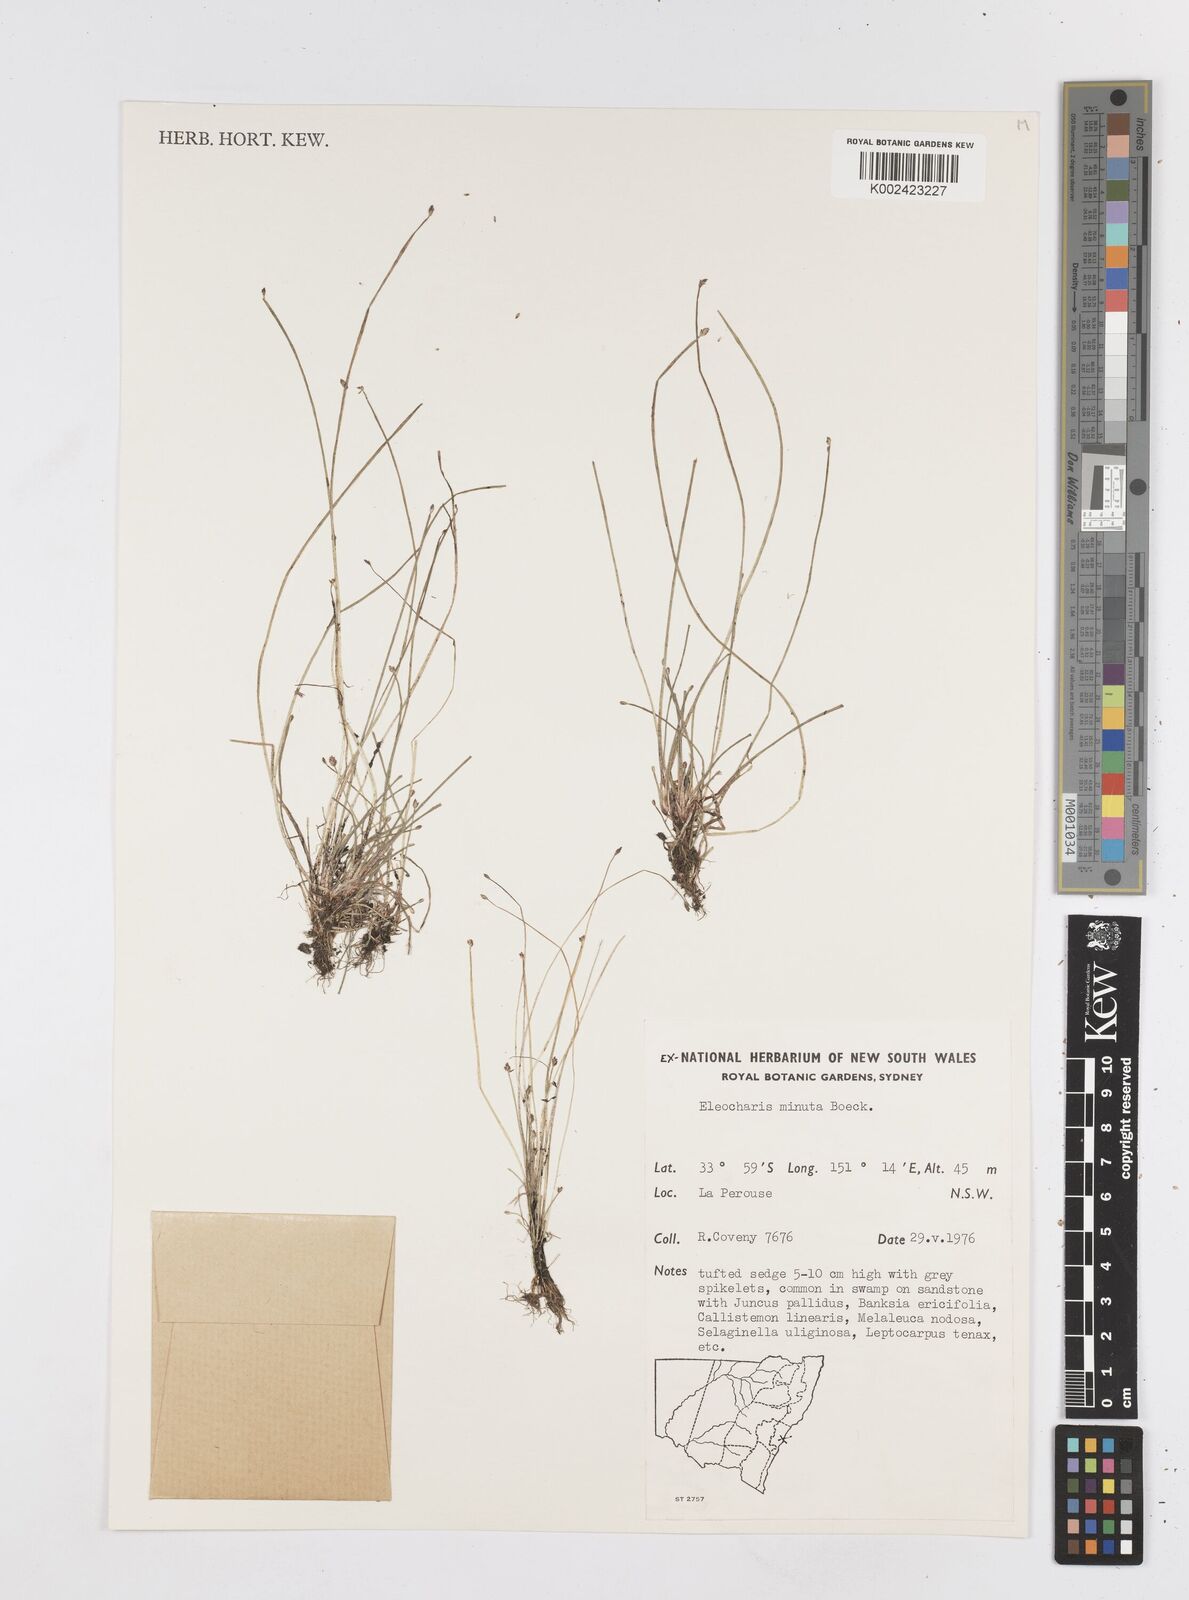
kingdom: Plantae
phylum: Tracheophyta
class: Liliopsida
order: Poales
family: Cyperaceae
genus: Eleocharis
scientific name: Eleocharis minuta
